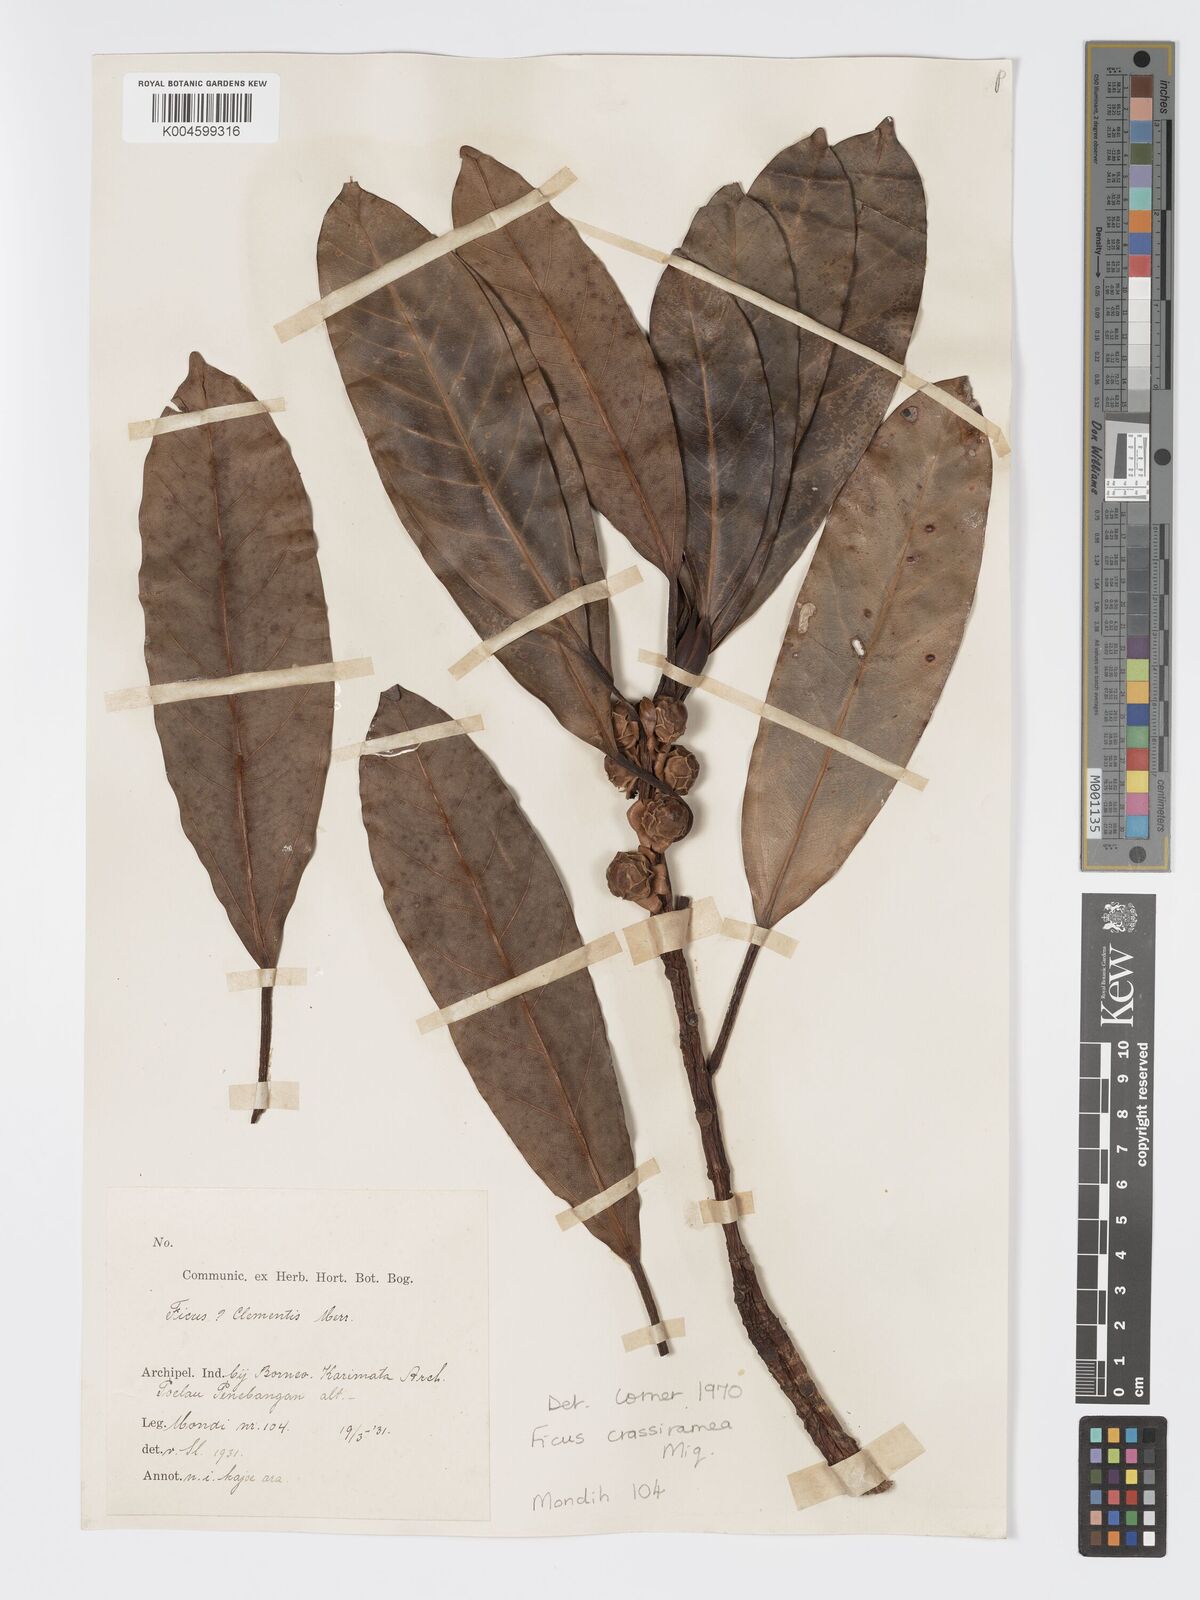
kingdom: Plantae
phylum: Tracheophyta
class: Magnoliopsida
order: Rosales
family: Moraceae
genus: Ficus
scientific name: Ficus crassiramea
